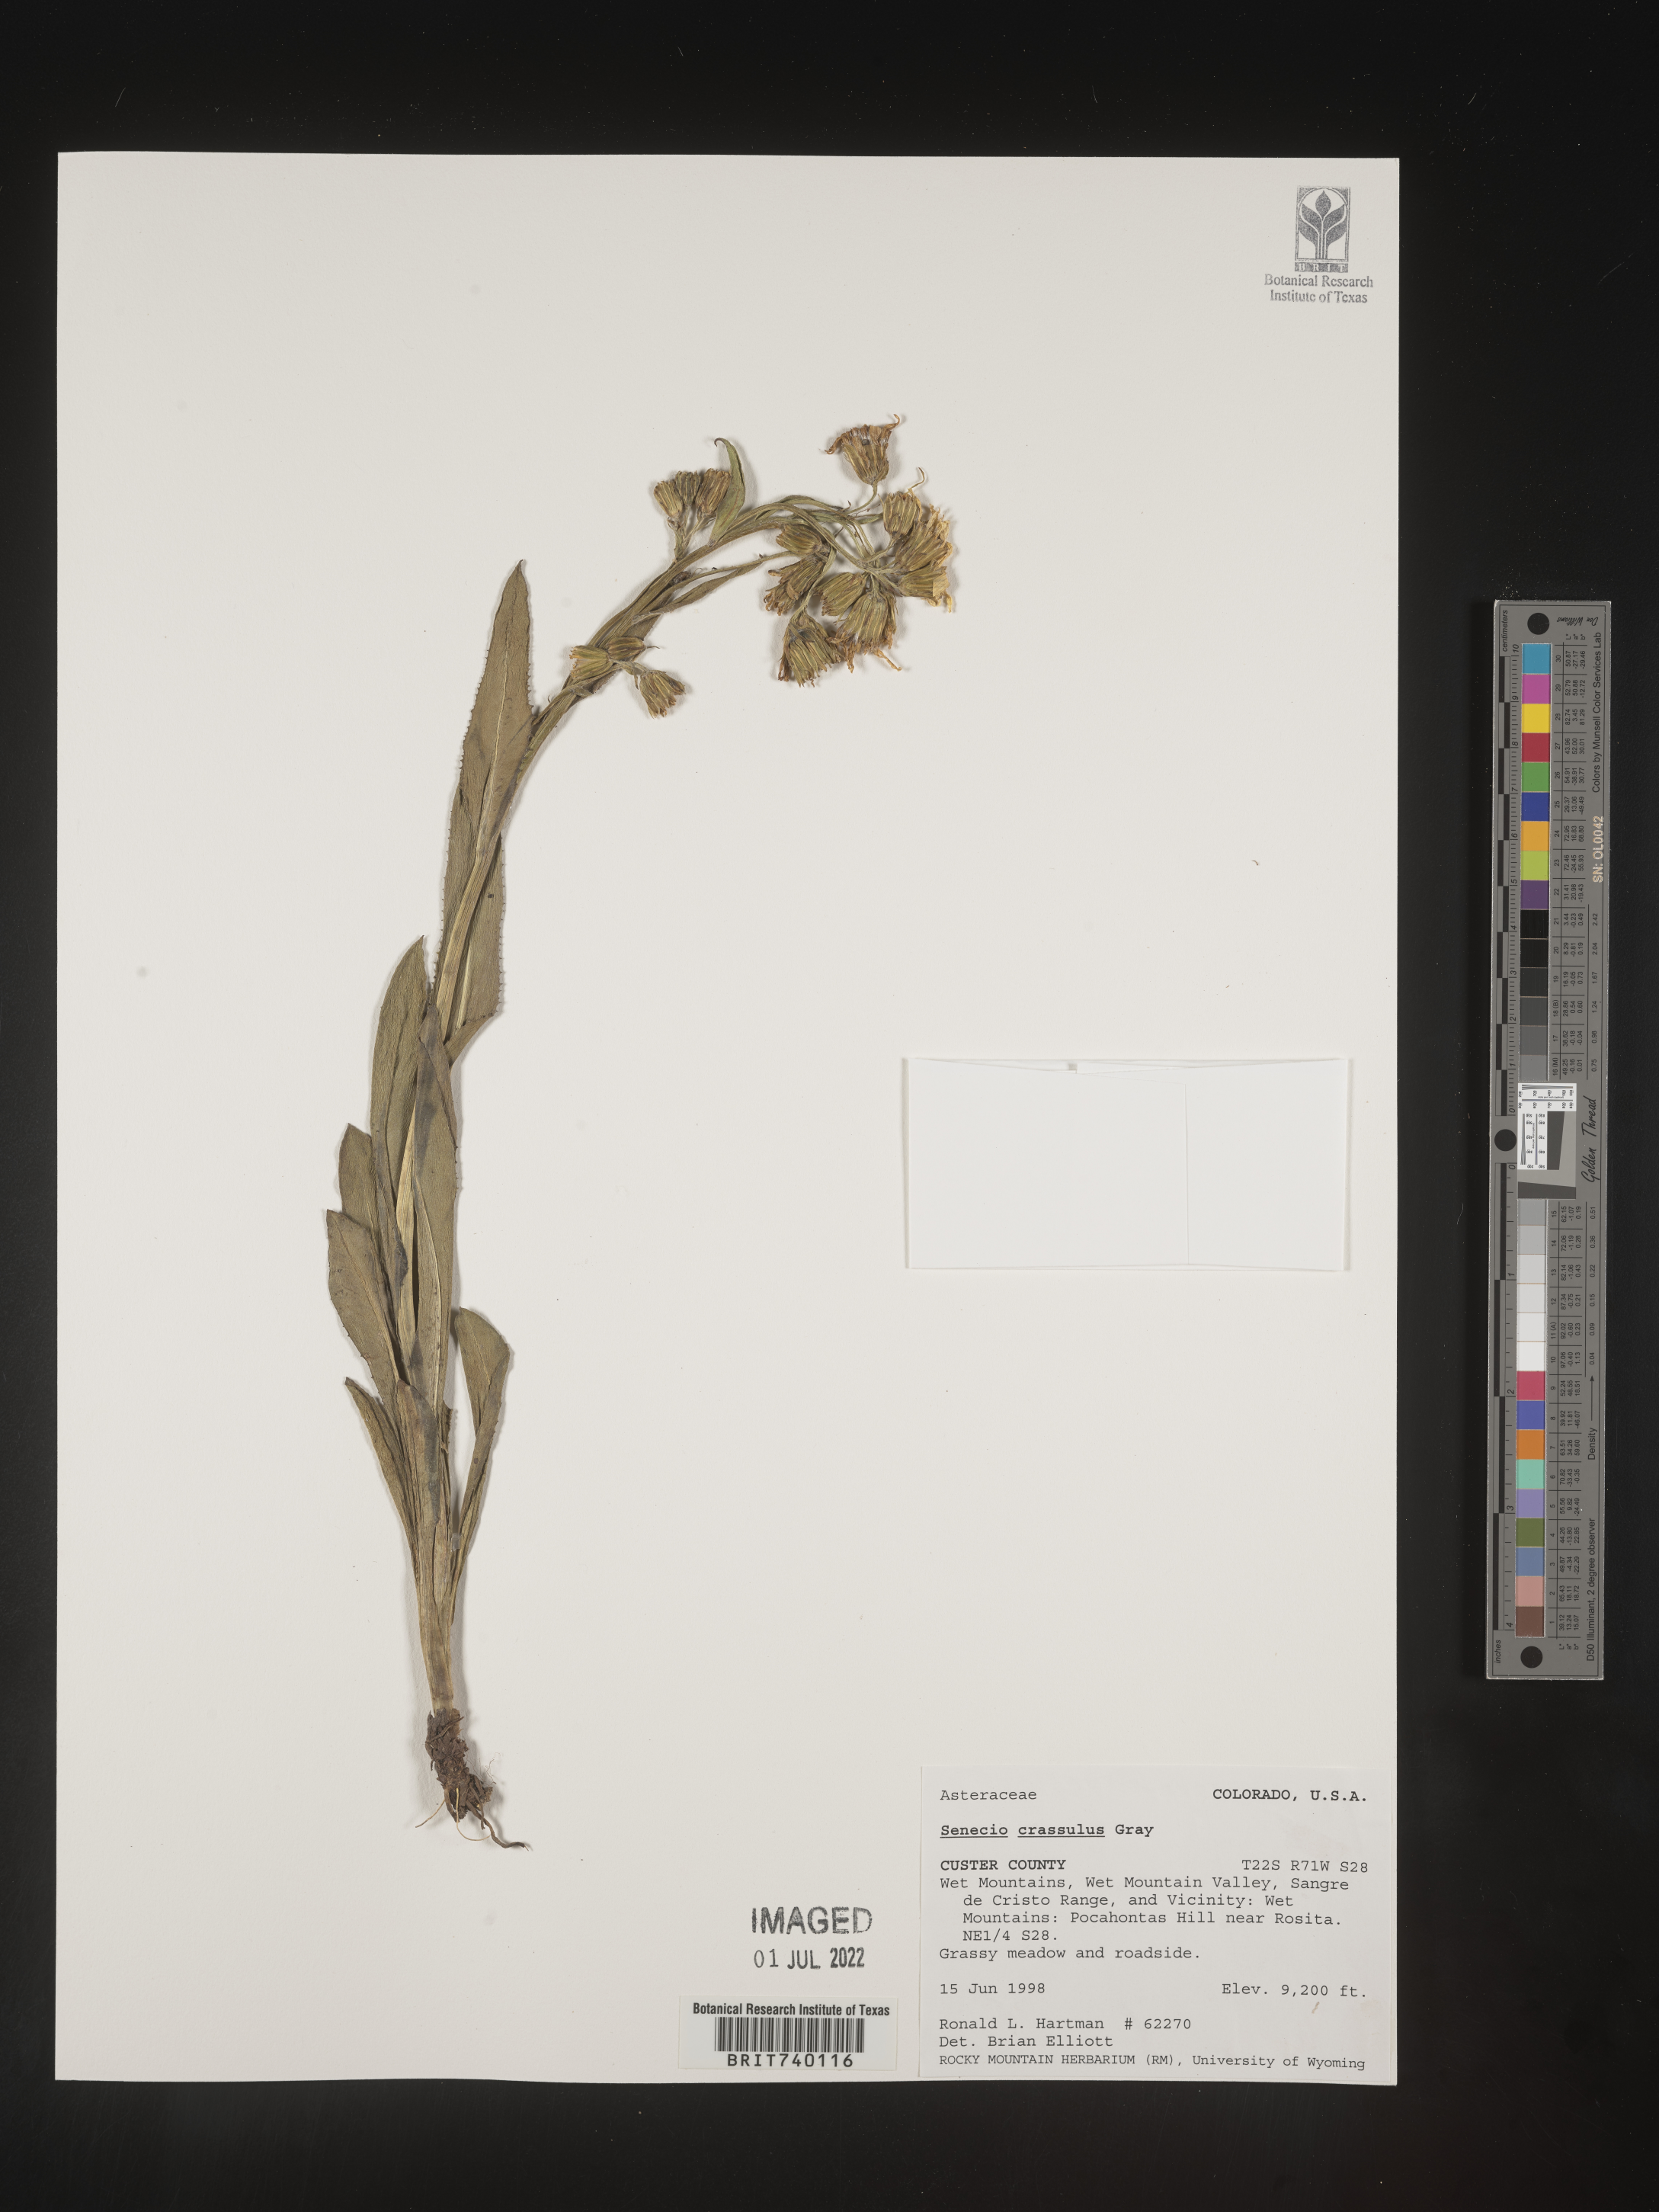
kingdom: Plantae
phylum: Tracheophyta
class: Magnoliopsida
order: Asterales
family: Asteraceae
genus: Senecio
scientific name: Senecio crassulus
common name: Mountain-meadow butterweed
